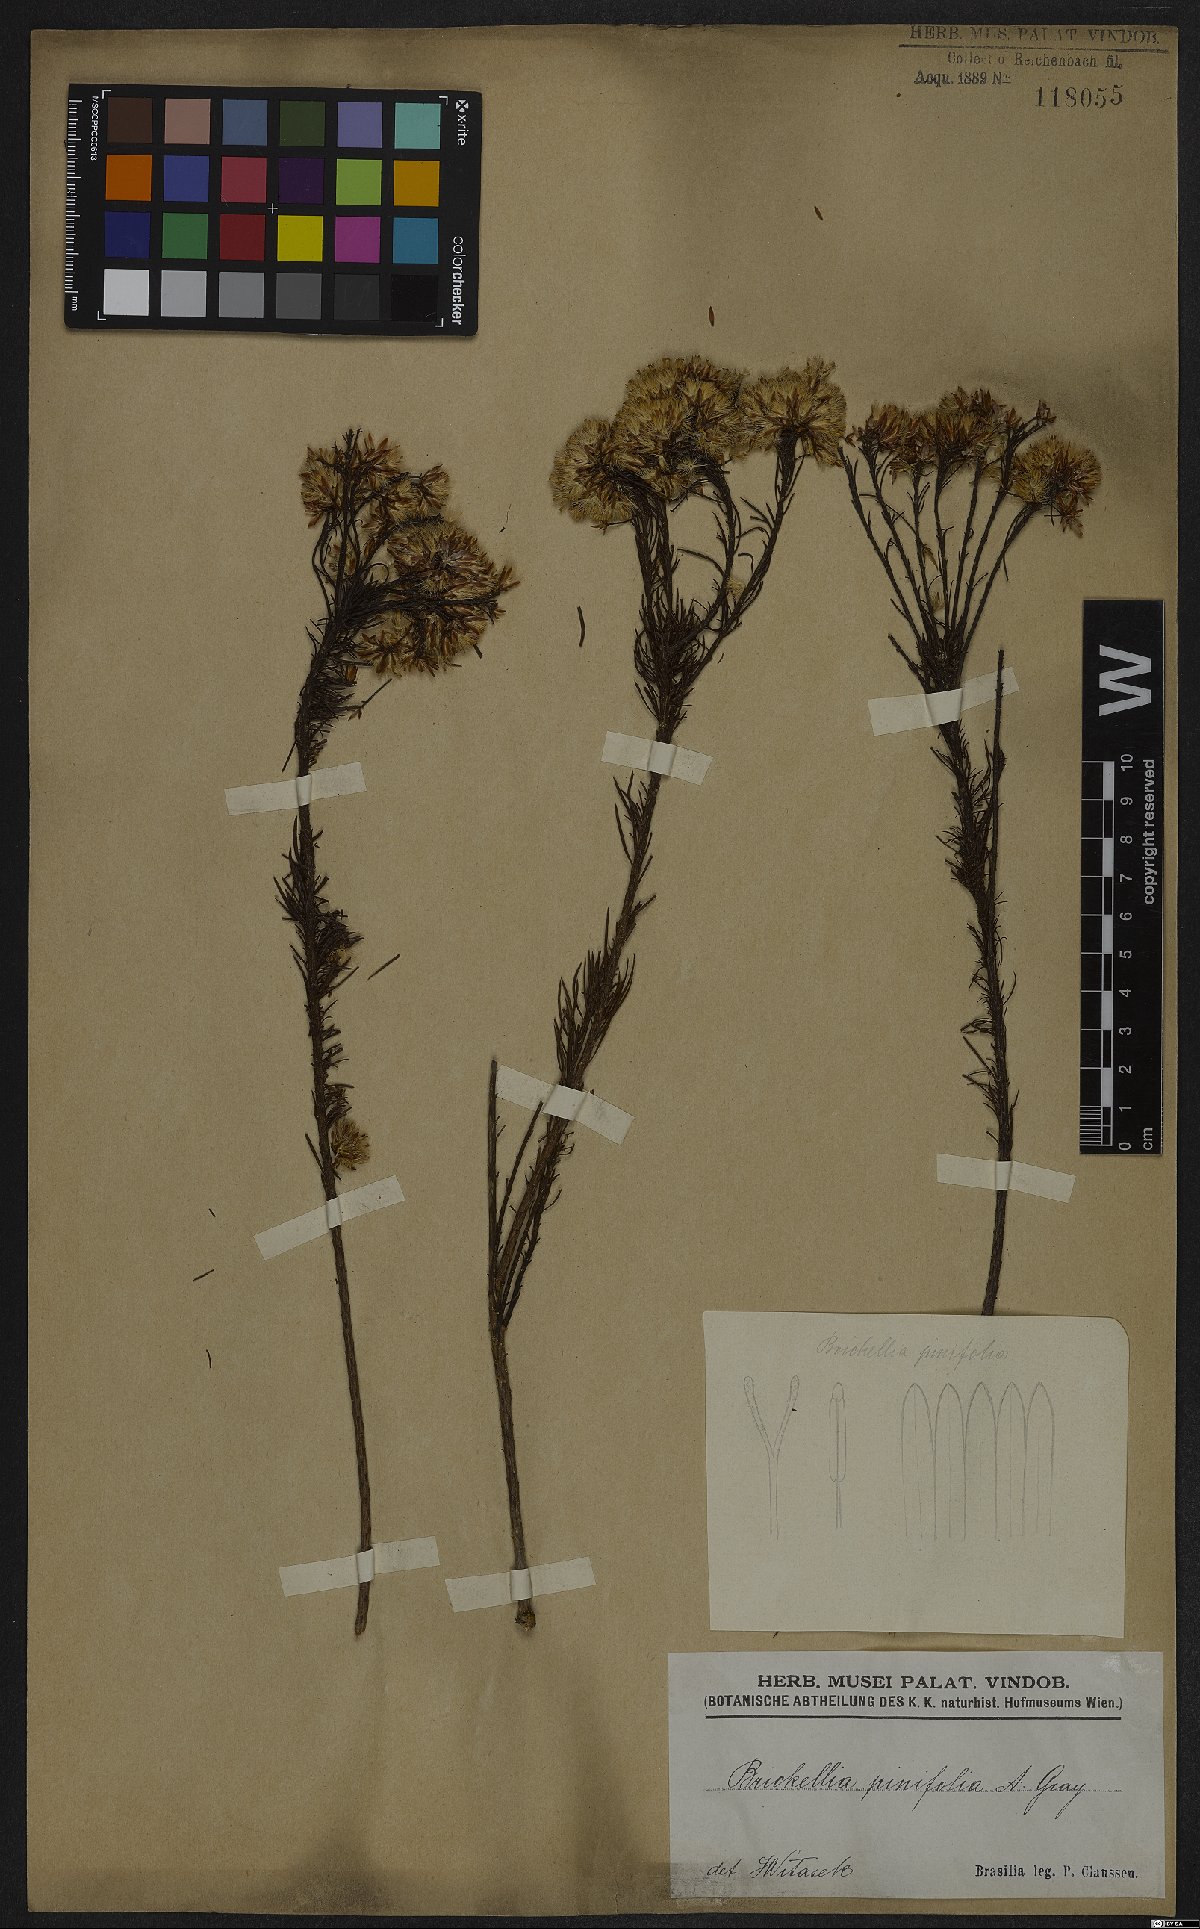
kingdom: Plantae
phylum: Tracheophyta
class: Magnoliopsida
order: Asterales
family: Asteraceae
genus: Pseudobrickellia
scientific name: Pseudobrickellia brasiliensis
